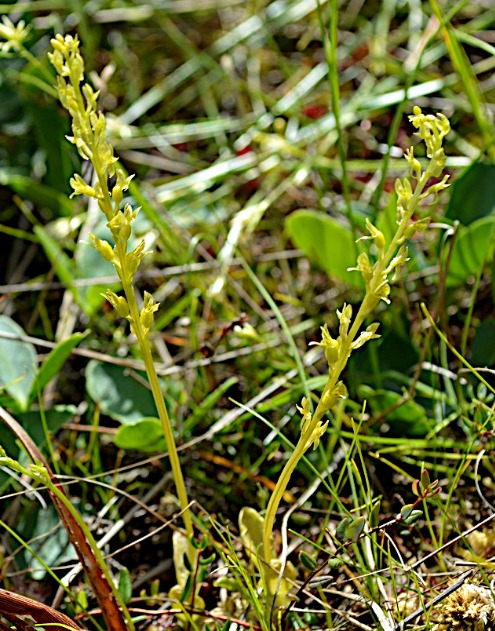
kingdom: Plantae
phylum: Tracheophyta
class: Liliopsida
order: Asparagales
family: Orchidaceae
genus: Hammarbya
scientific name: Hammarbya paludosa
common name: Hjertelæbe
